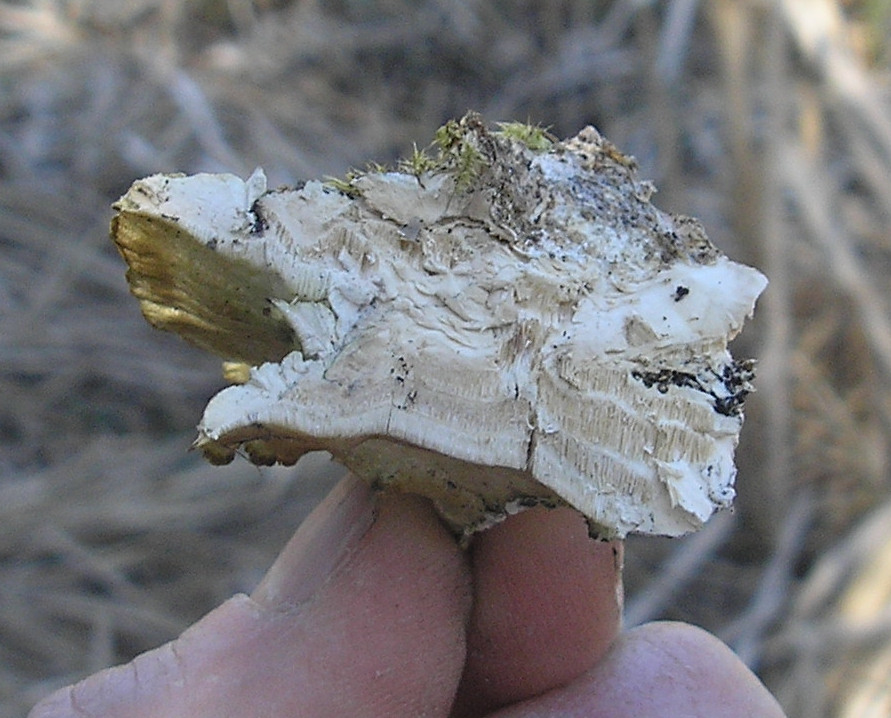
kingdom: Fungi
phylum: Basidiomycota
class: Agaricomycetes
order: Hymenochaetales
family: Oxyporaceae
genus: Oxyporus
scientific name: Oxyporus populinus
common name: sammenvokset trylleporesvamp
